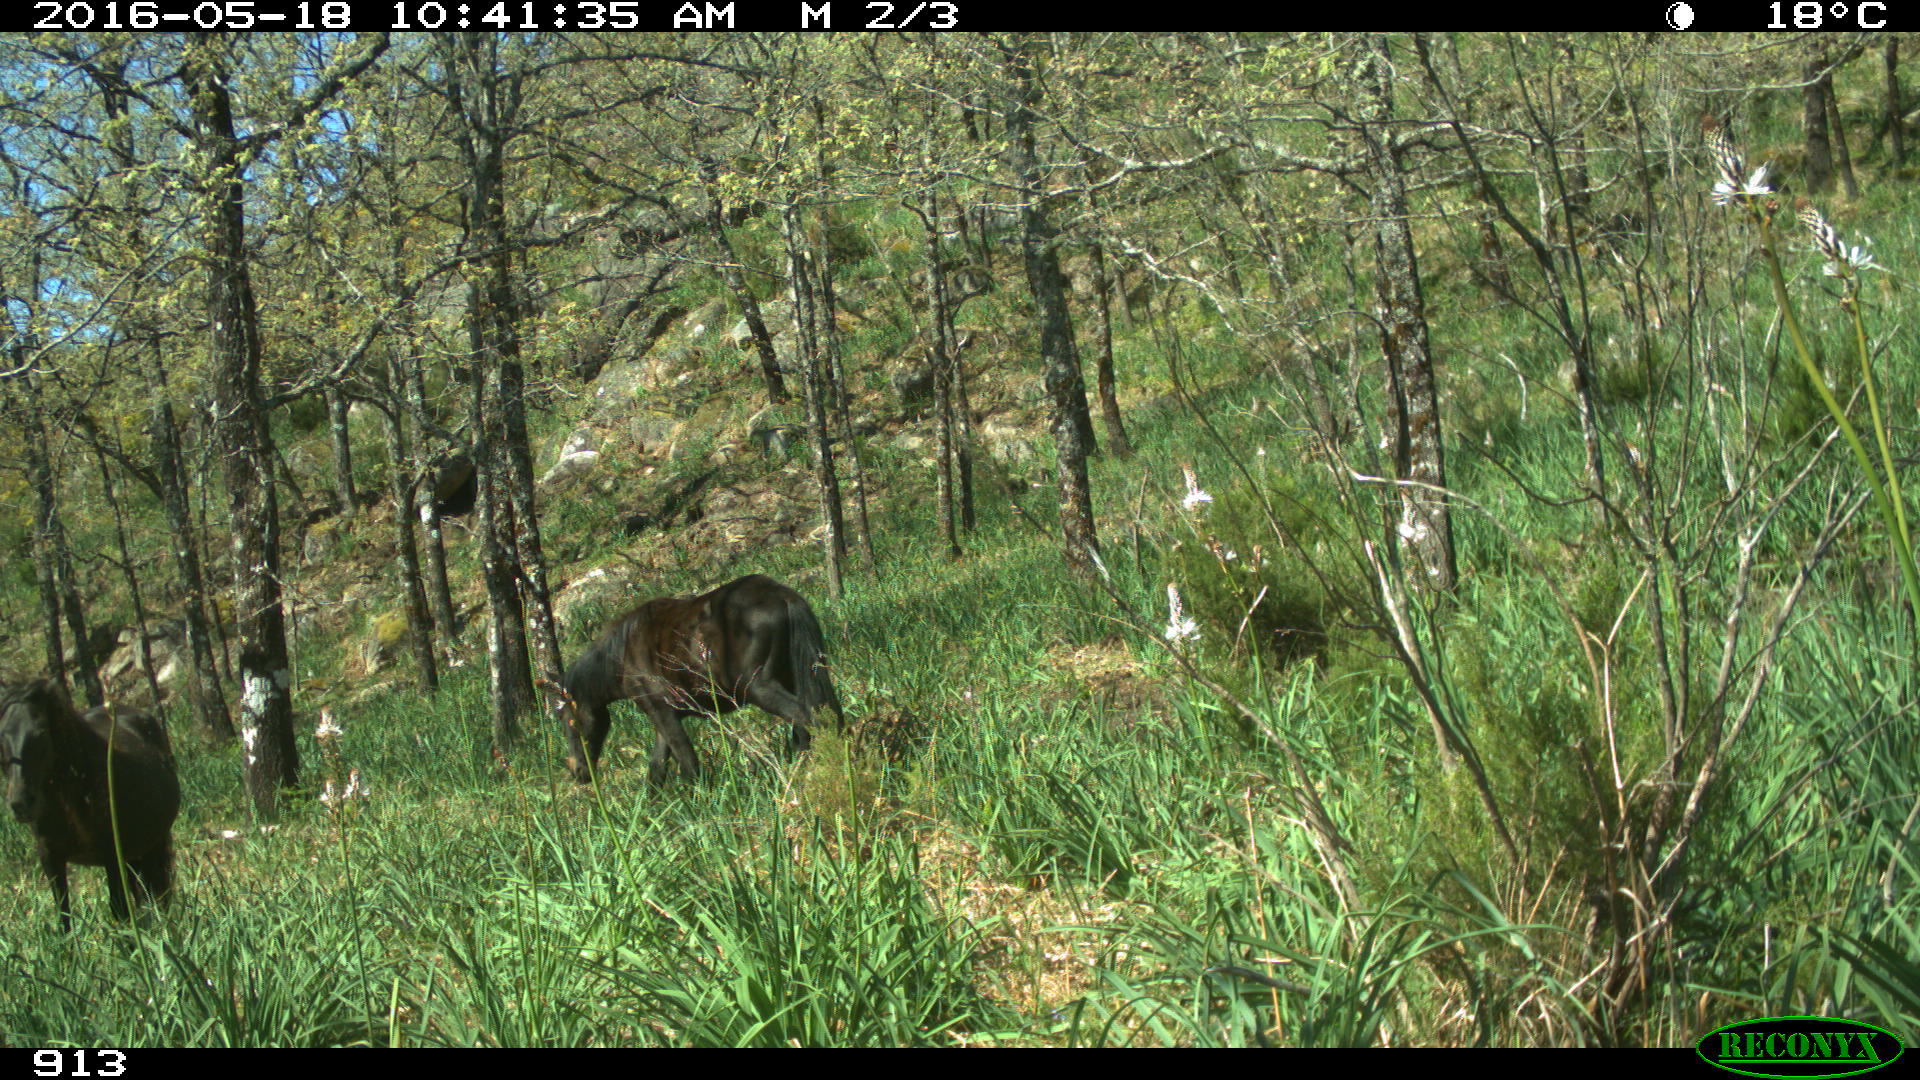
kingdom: Animalia
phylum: Chordata
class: Mammalia
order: Perissodactyla
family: Equidae
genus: Equus
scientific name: Equus caballus
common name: Horse
